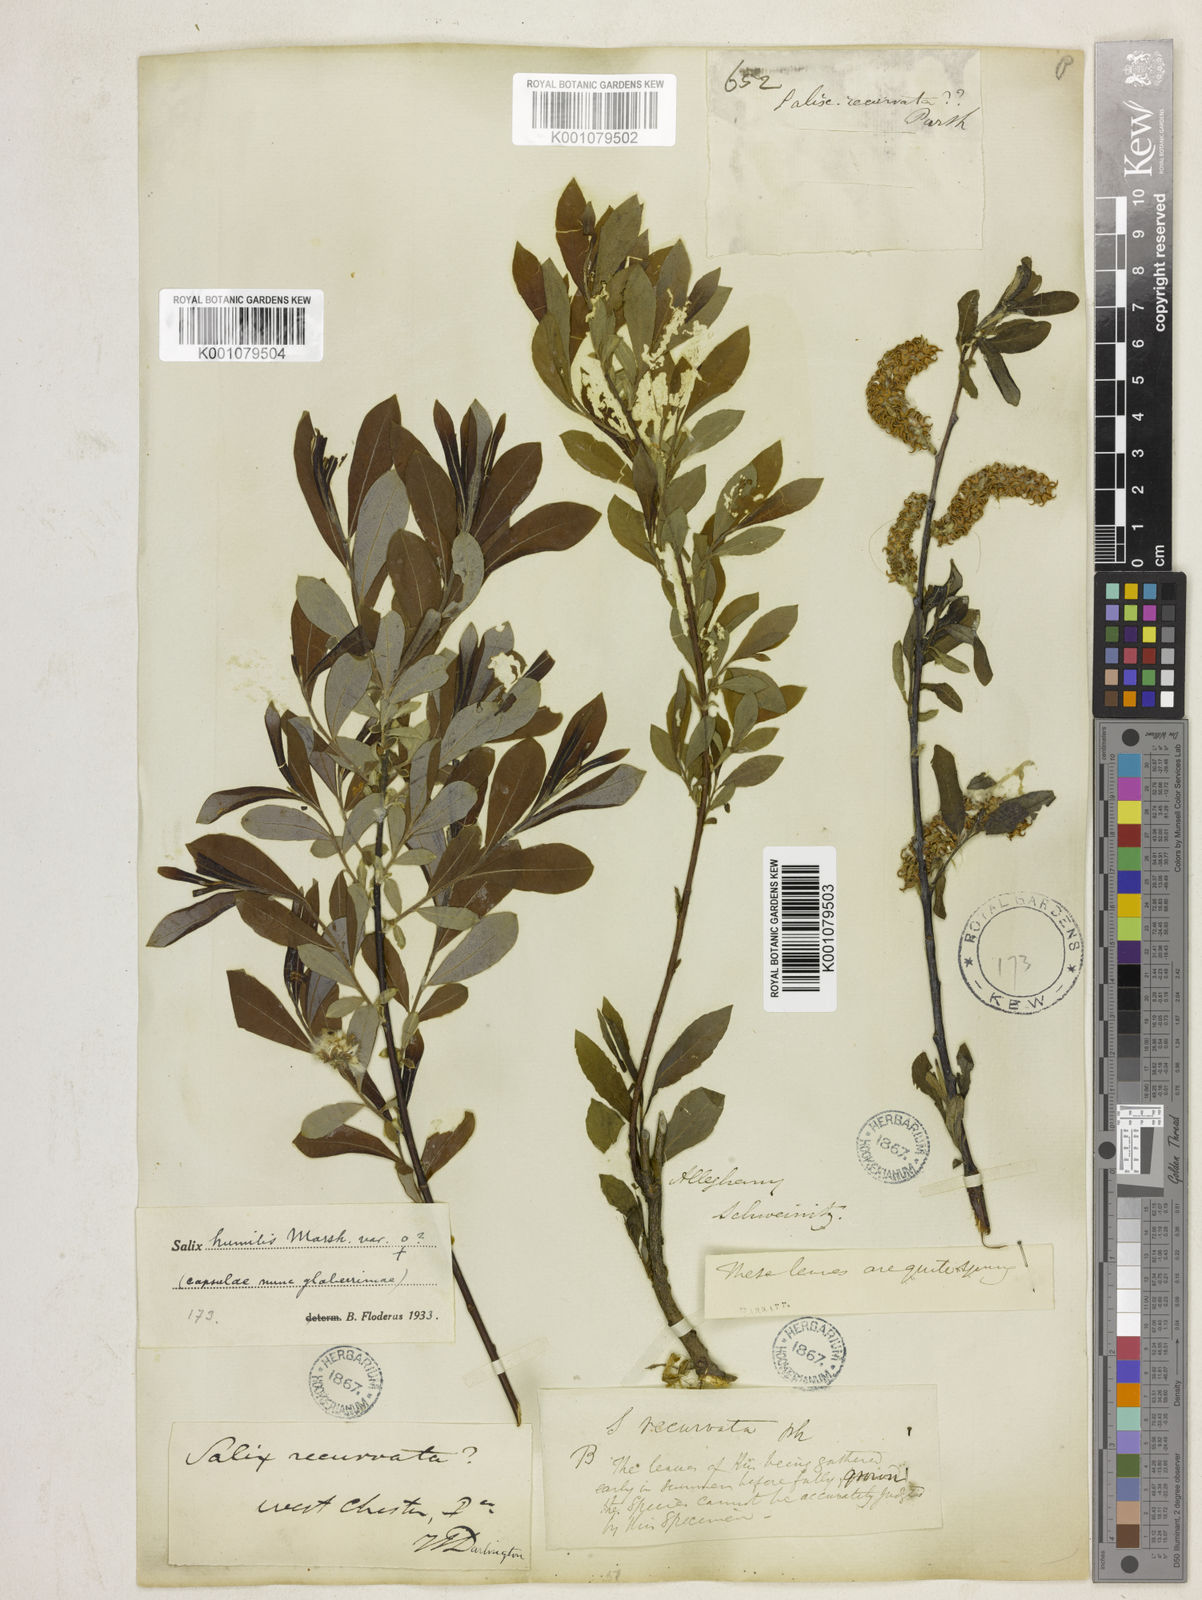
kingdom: Plantae
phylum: Tracheophyta
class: Magnoliopsida
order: Malpighiales
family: Salicaceae
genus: Salix
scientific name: Salix humilis
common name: Prairie willow
